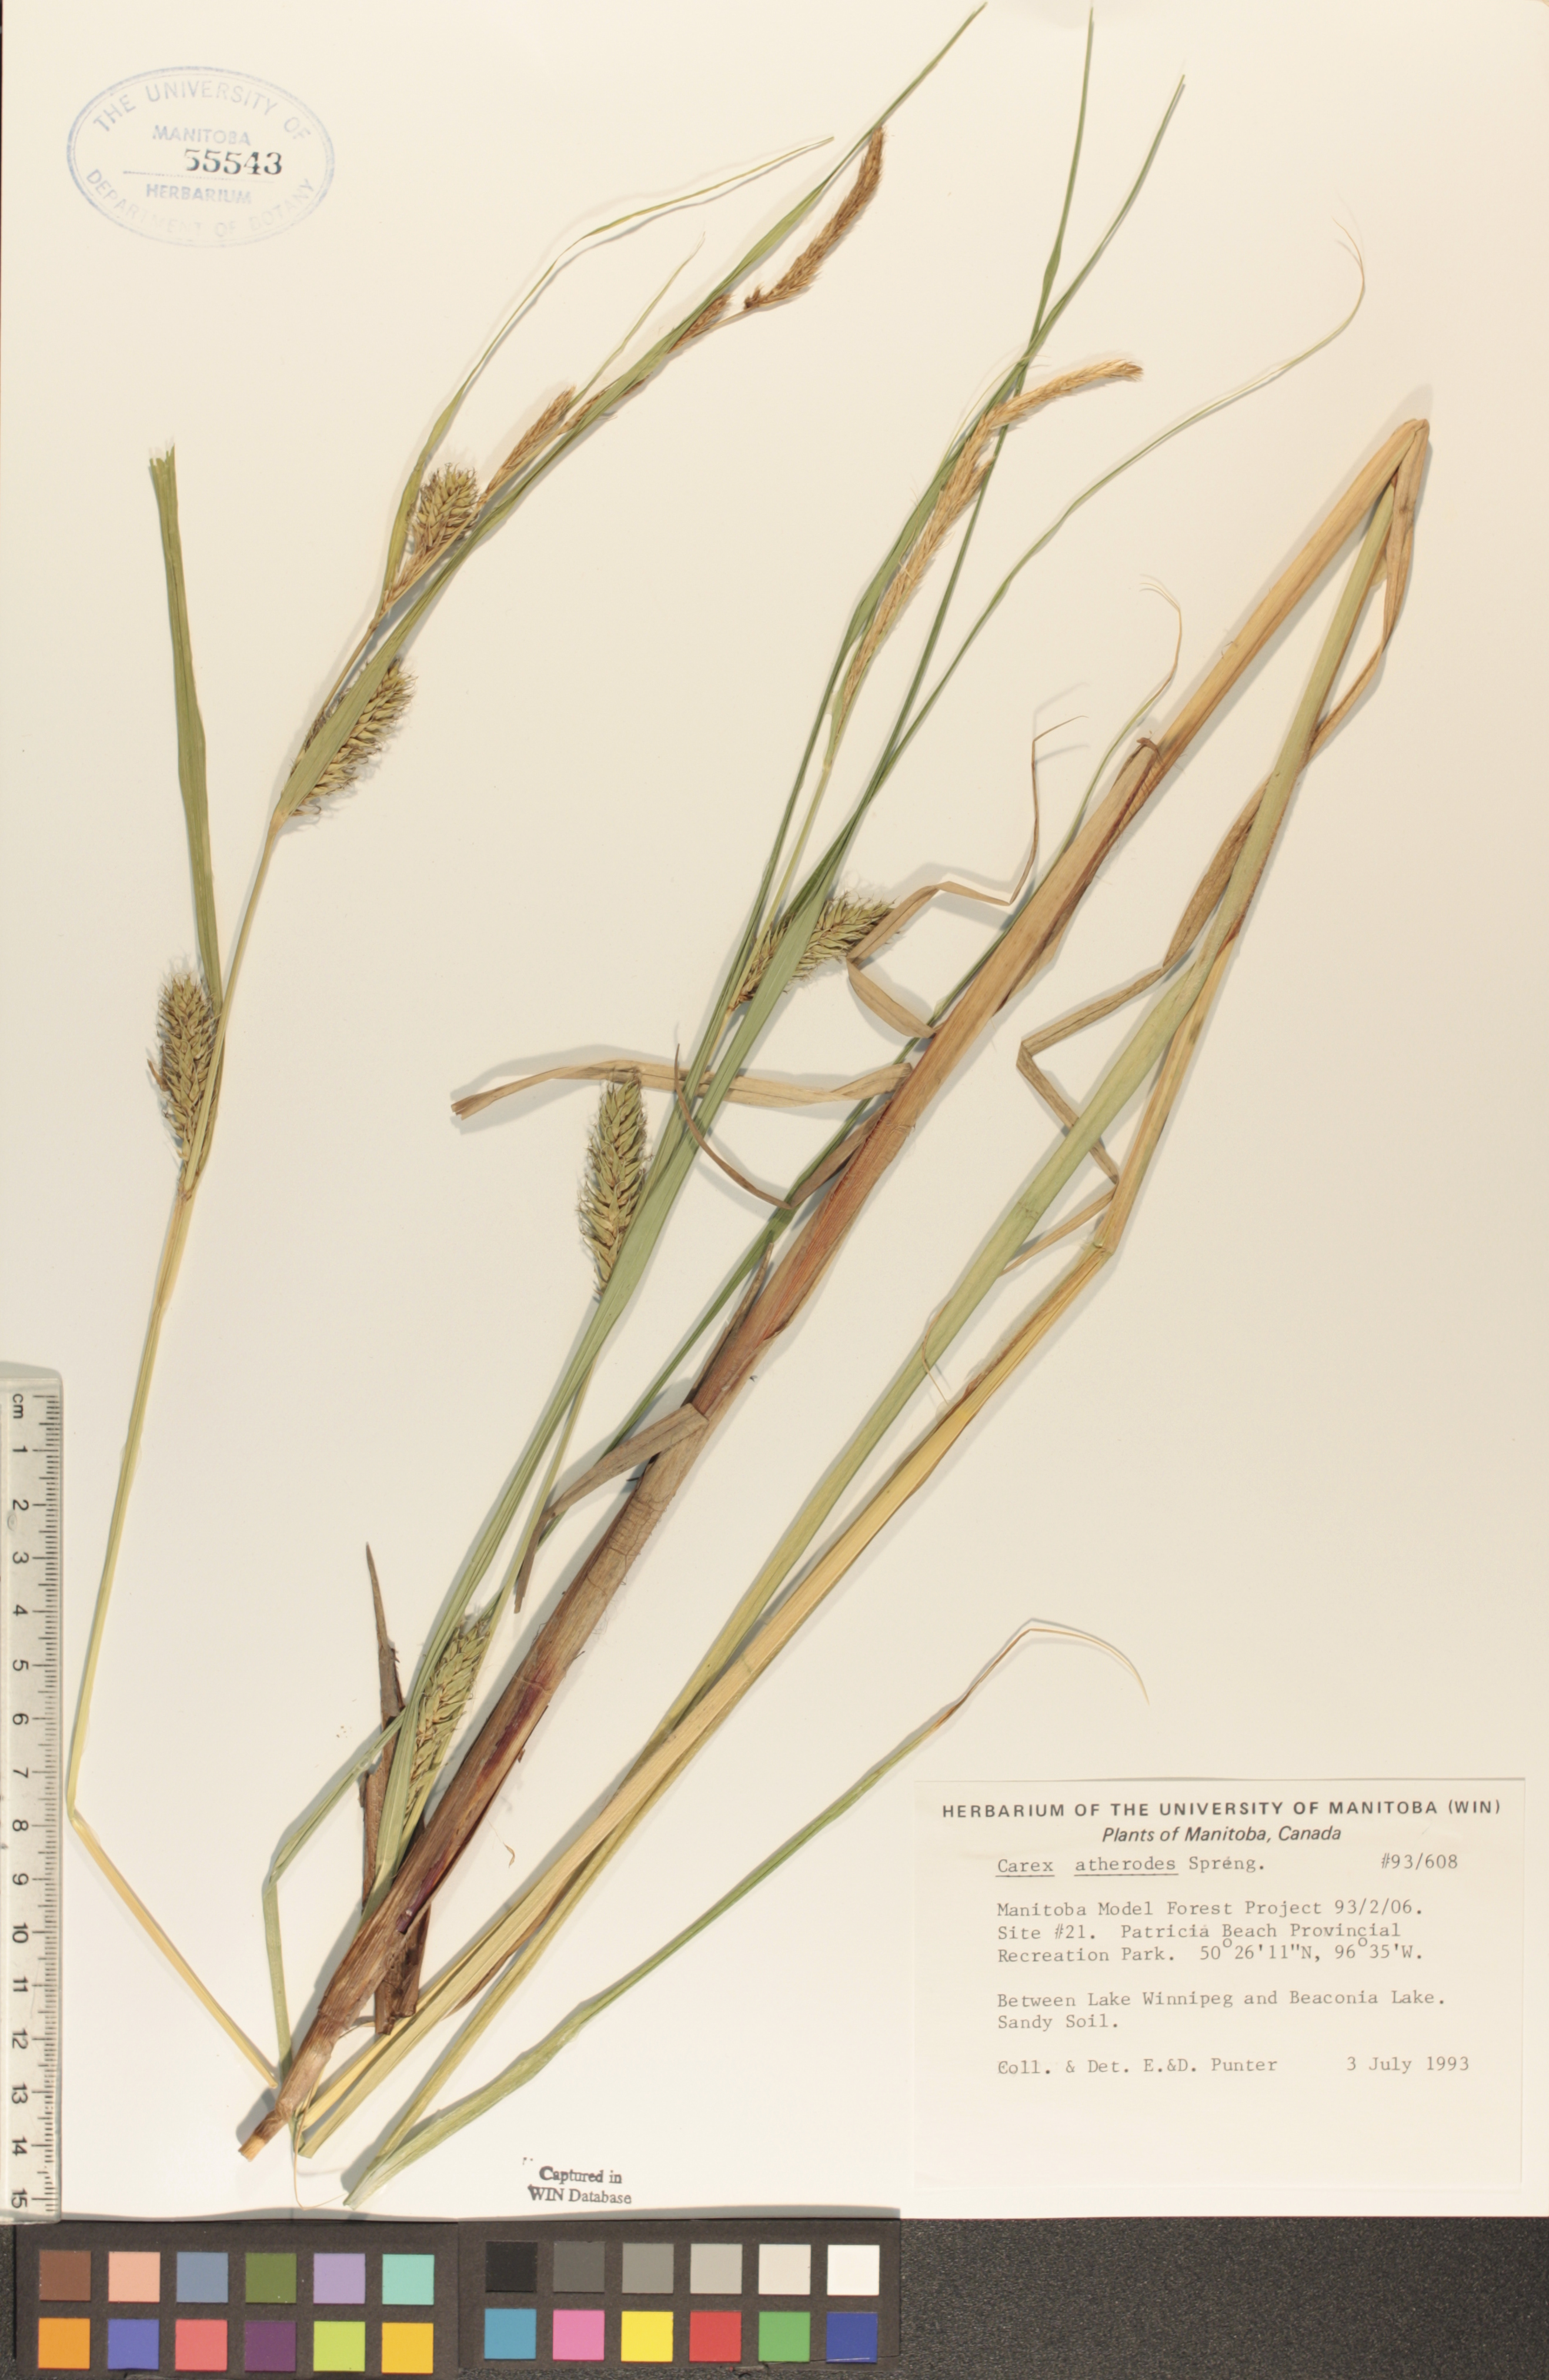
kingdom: Plantae
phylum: Tracheophyta
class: Liliopsida
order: Poales
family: Cyperaceae
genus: Carex
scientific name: Carex atherodes
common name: Wheat sedge
